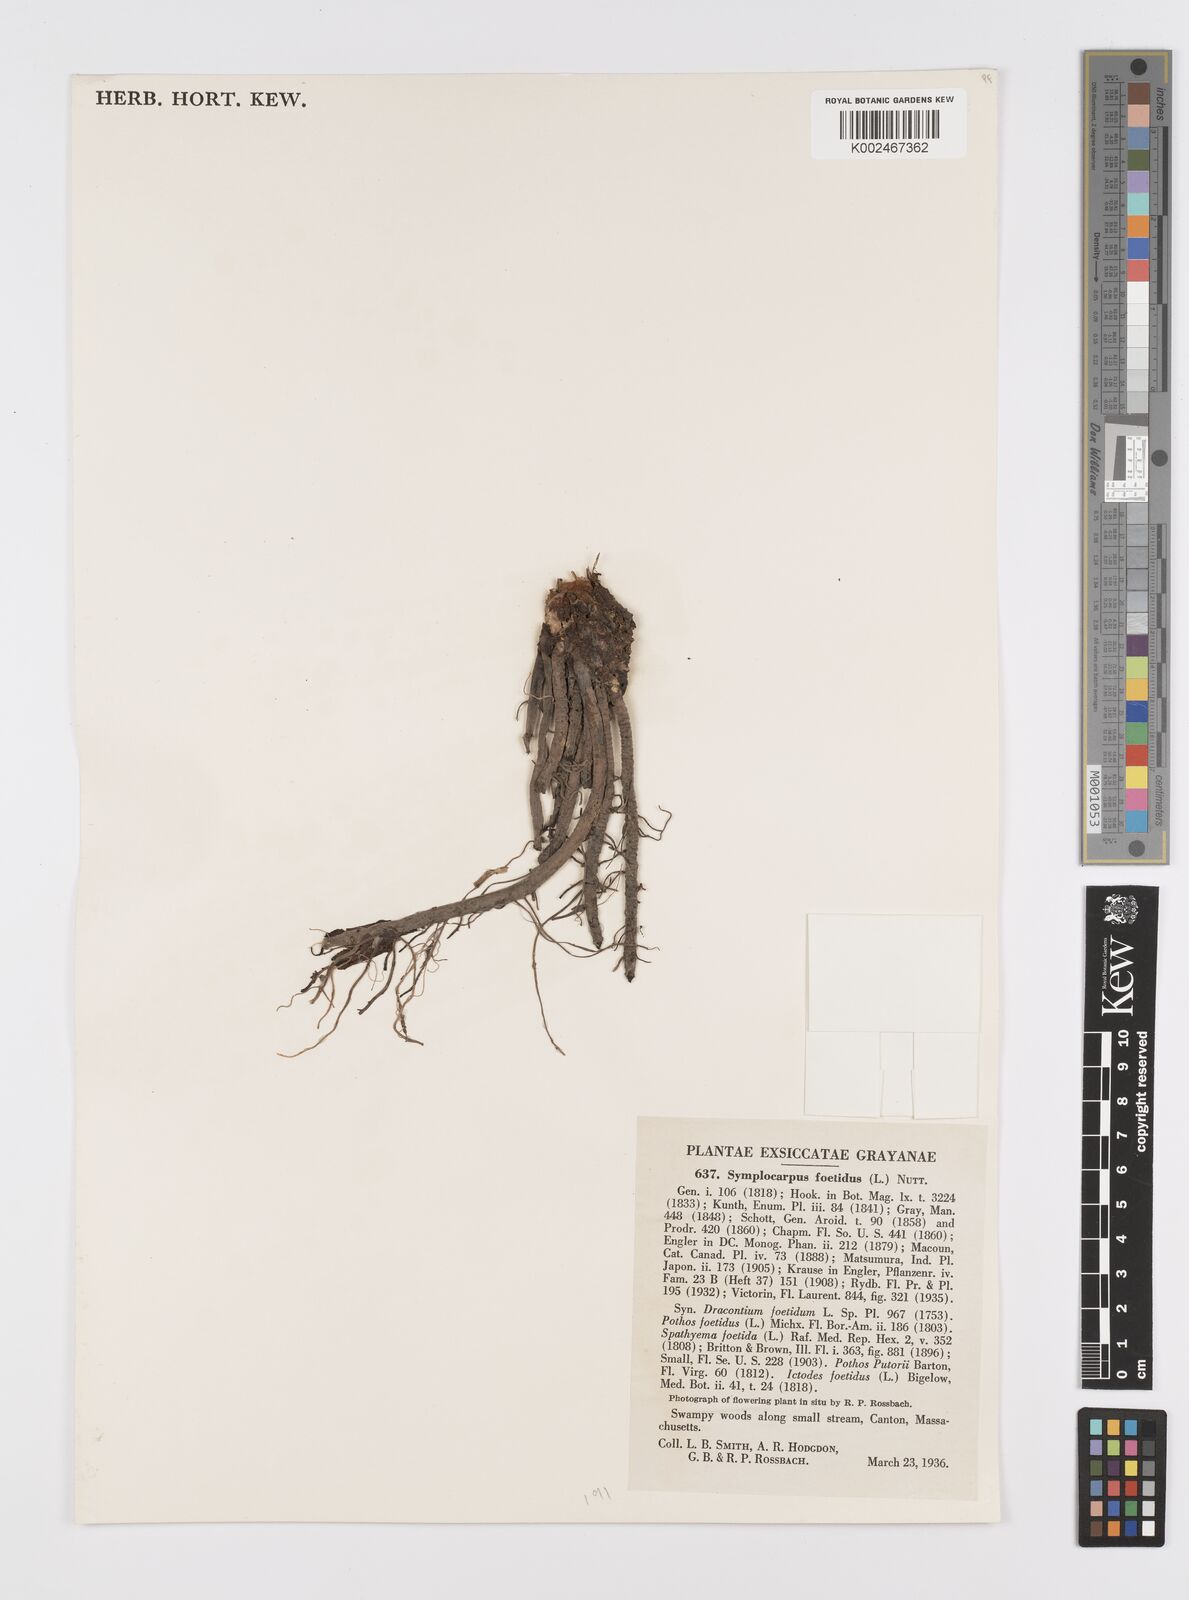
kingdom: Plantae
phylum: Tracheophyta
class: Liliopsida
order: Alismatales
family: Araceae
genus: Symplocarpus
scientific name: Symplocarpus foetidus
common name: Eastern skunk cabbage
